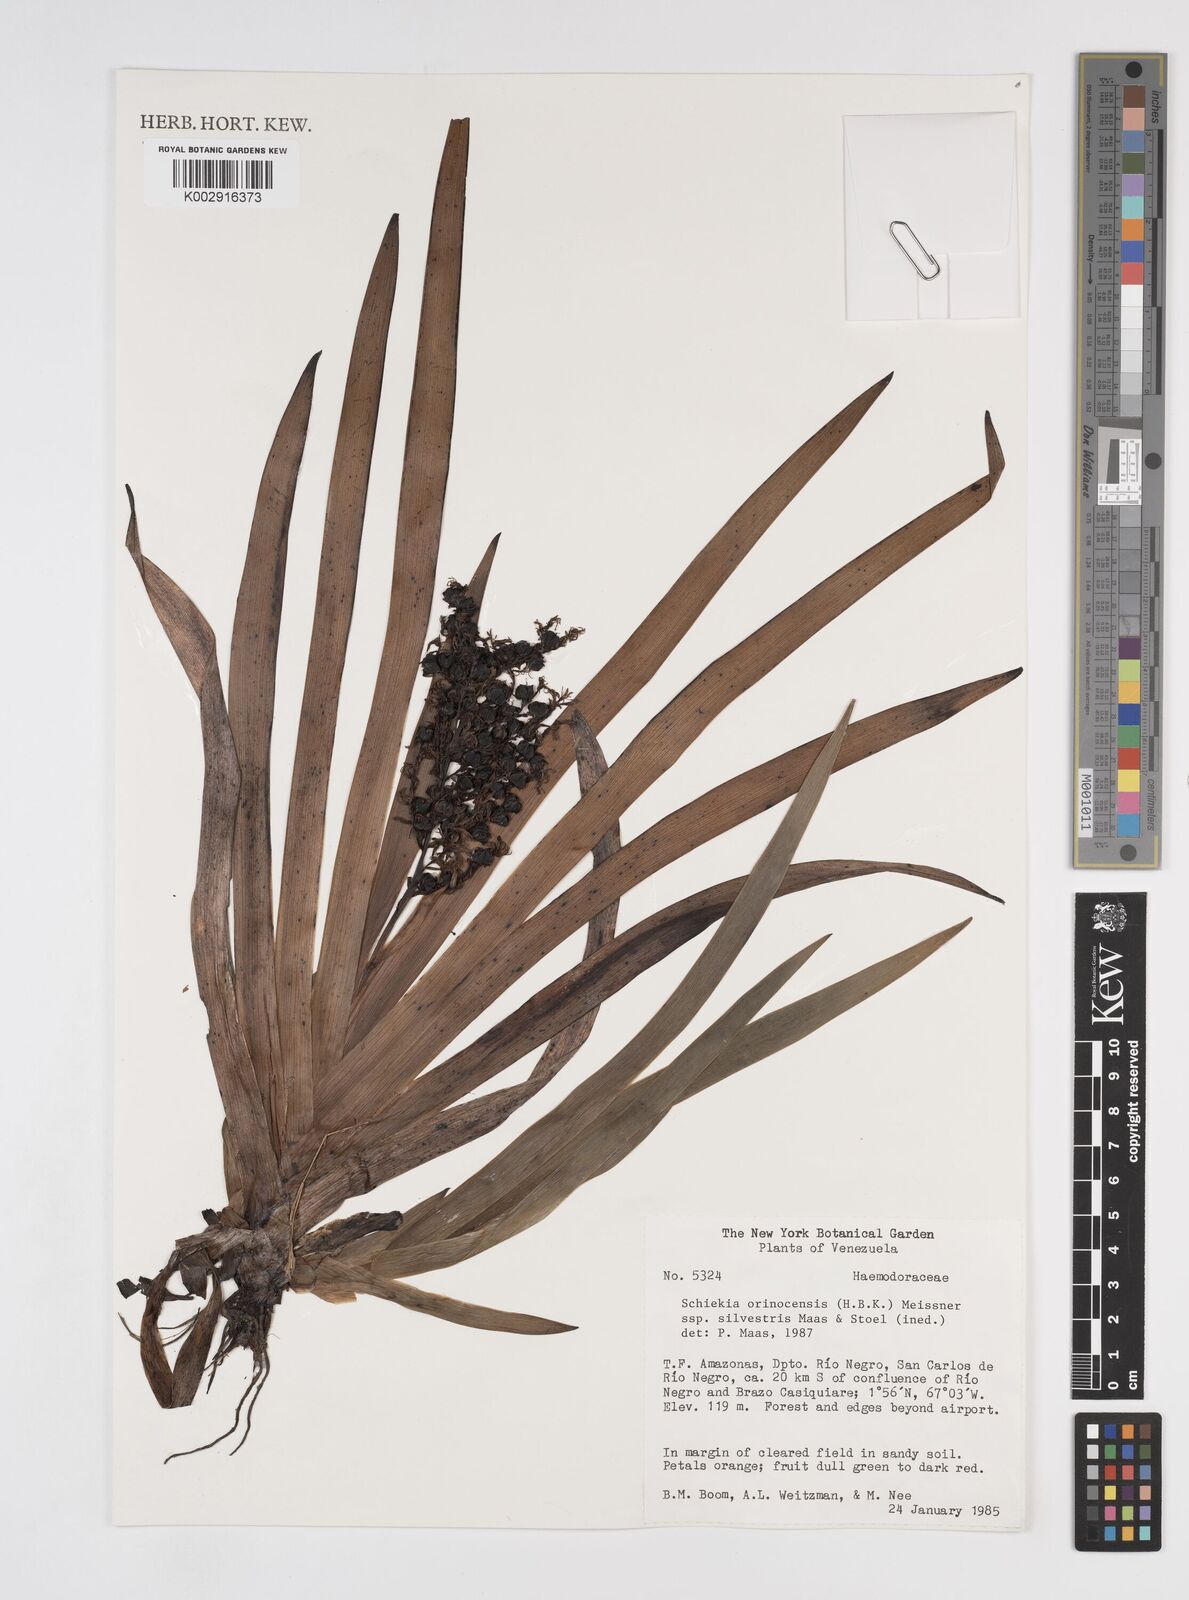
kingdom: Plantae
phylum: Tracheophyta
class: Liliopsida
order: Commelinales
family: Haemodoraceae
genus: Schiekia
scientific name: Schiekia silvestris
